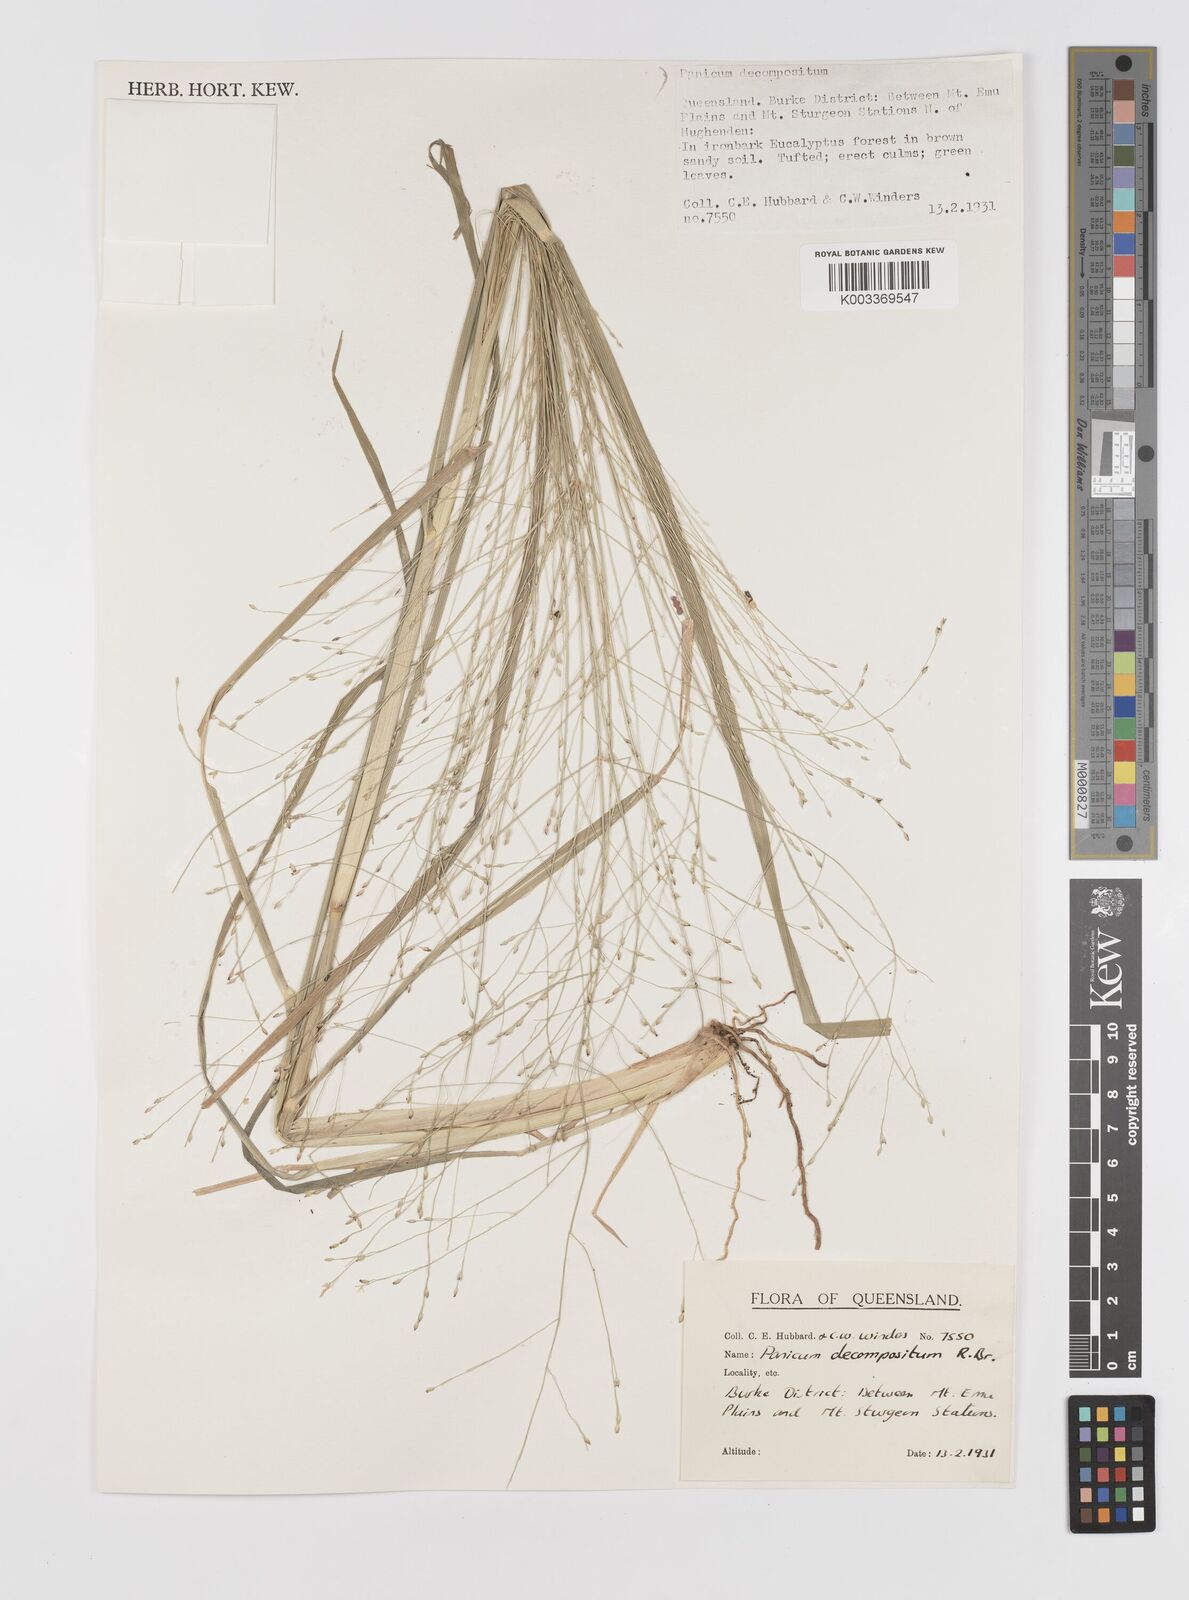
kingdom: Plantae
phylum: Tracheophyta
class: Liliopsida
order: Poales
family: Poaceae
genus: Panicum
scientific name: Panicum decompositum
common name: Australian millet
